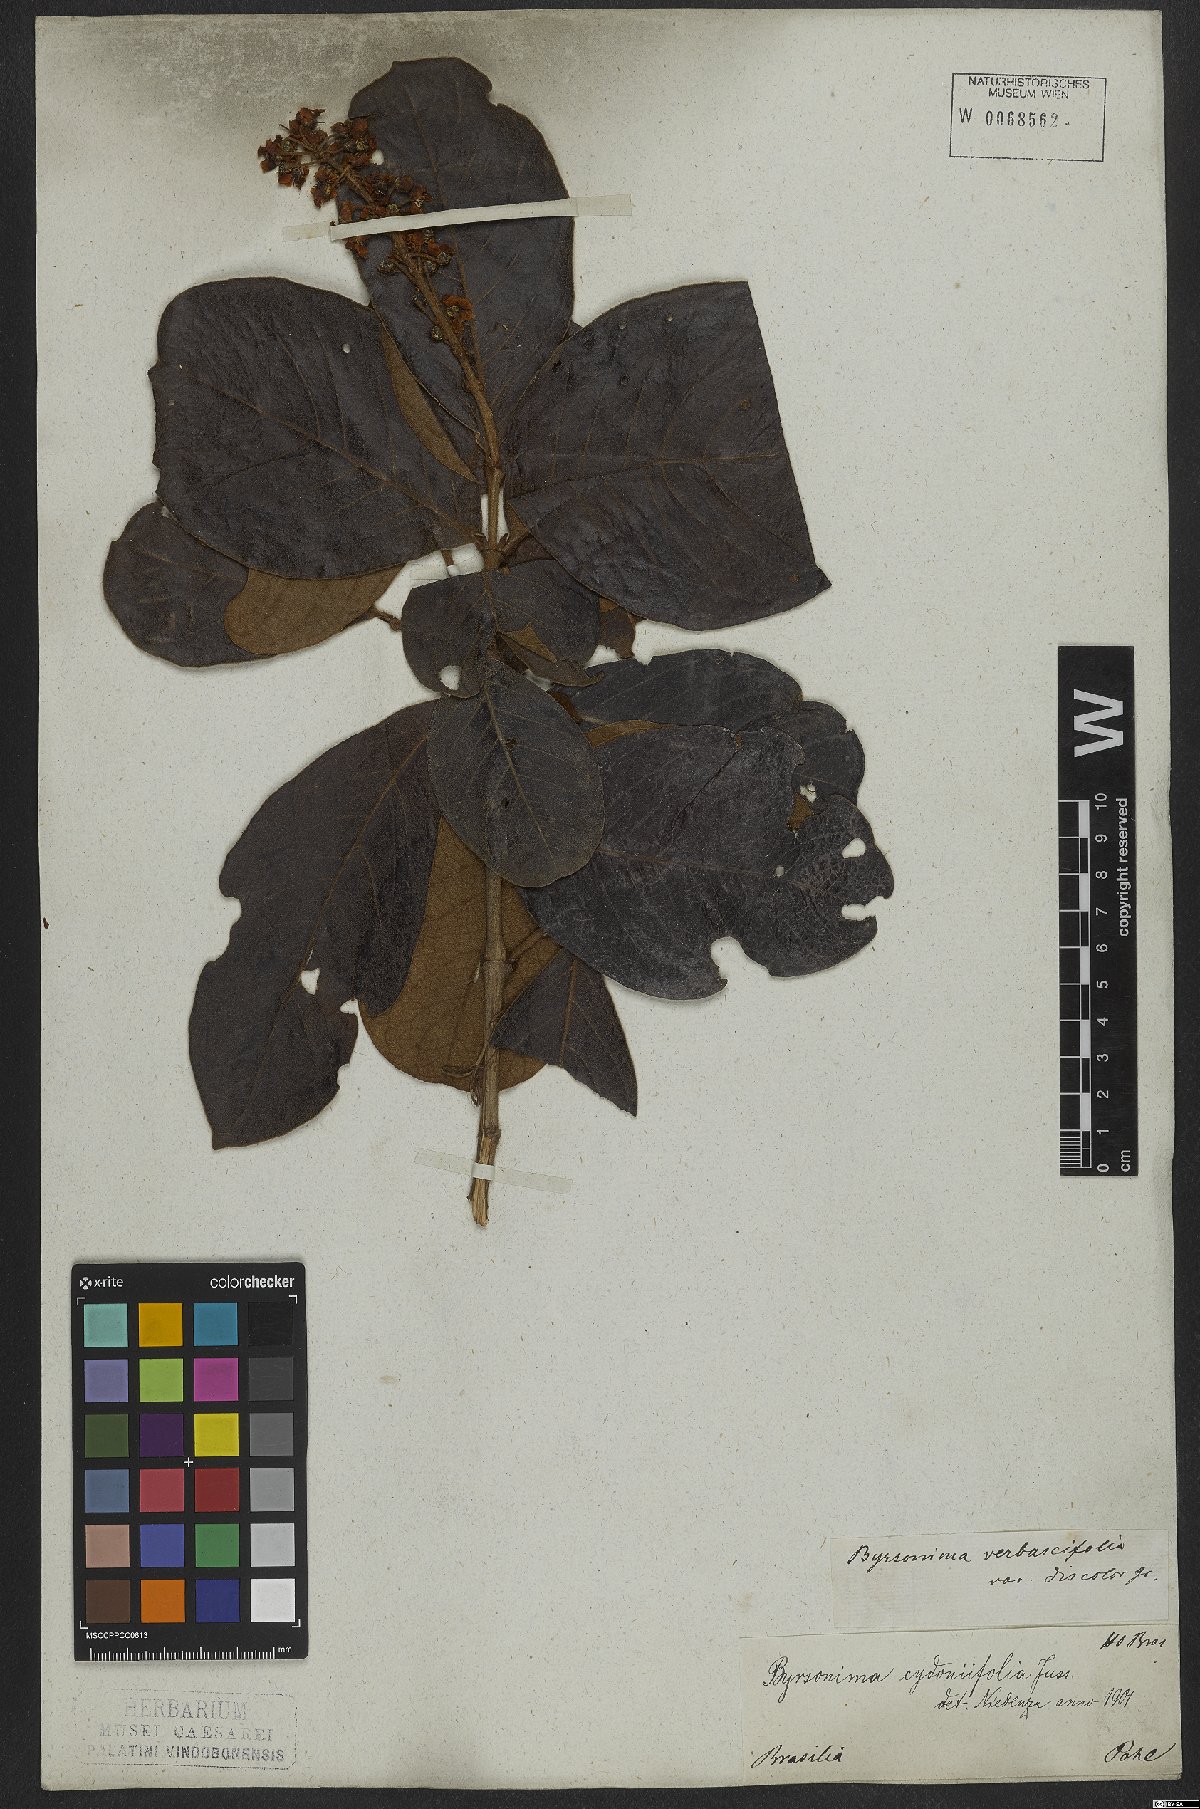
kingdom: Plantae
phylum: Tracheophyta
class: Magnoliopsida
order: Malpighiales
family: Malpighiaceae
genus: Byrsonima
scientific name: Byrsonima cydoniifolia
